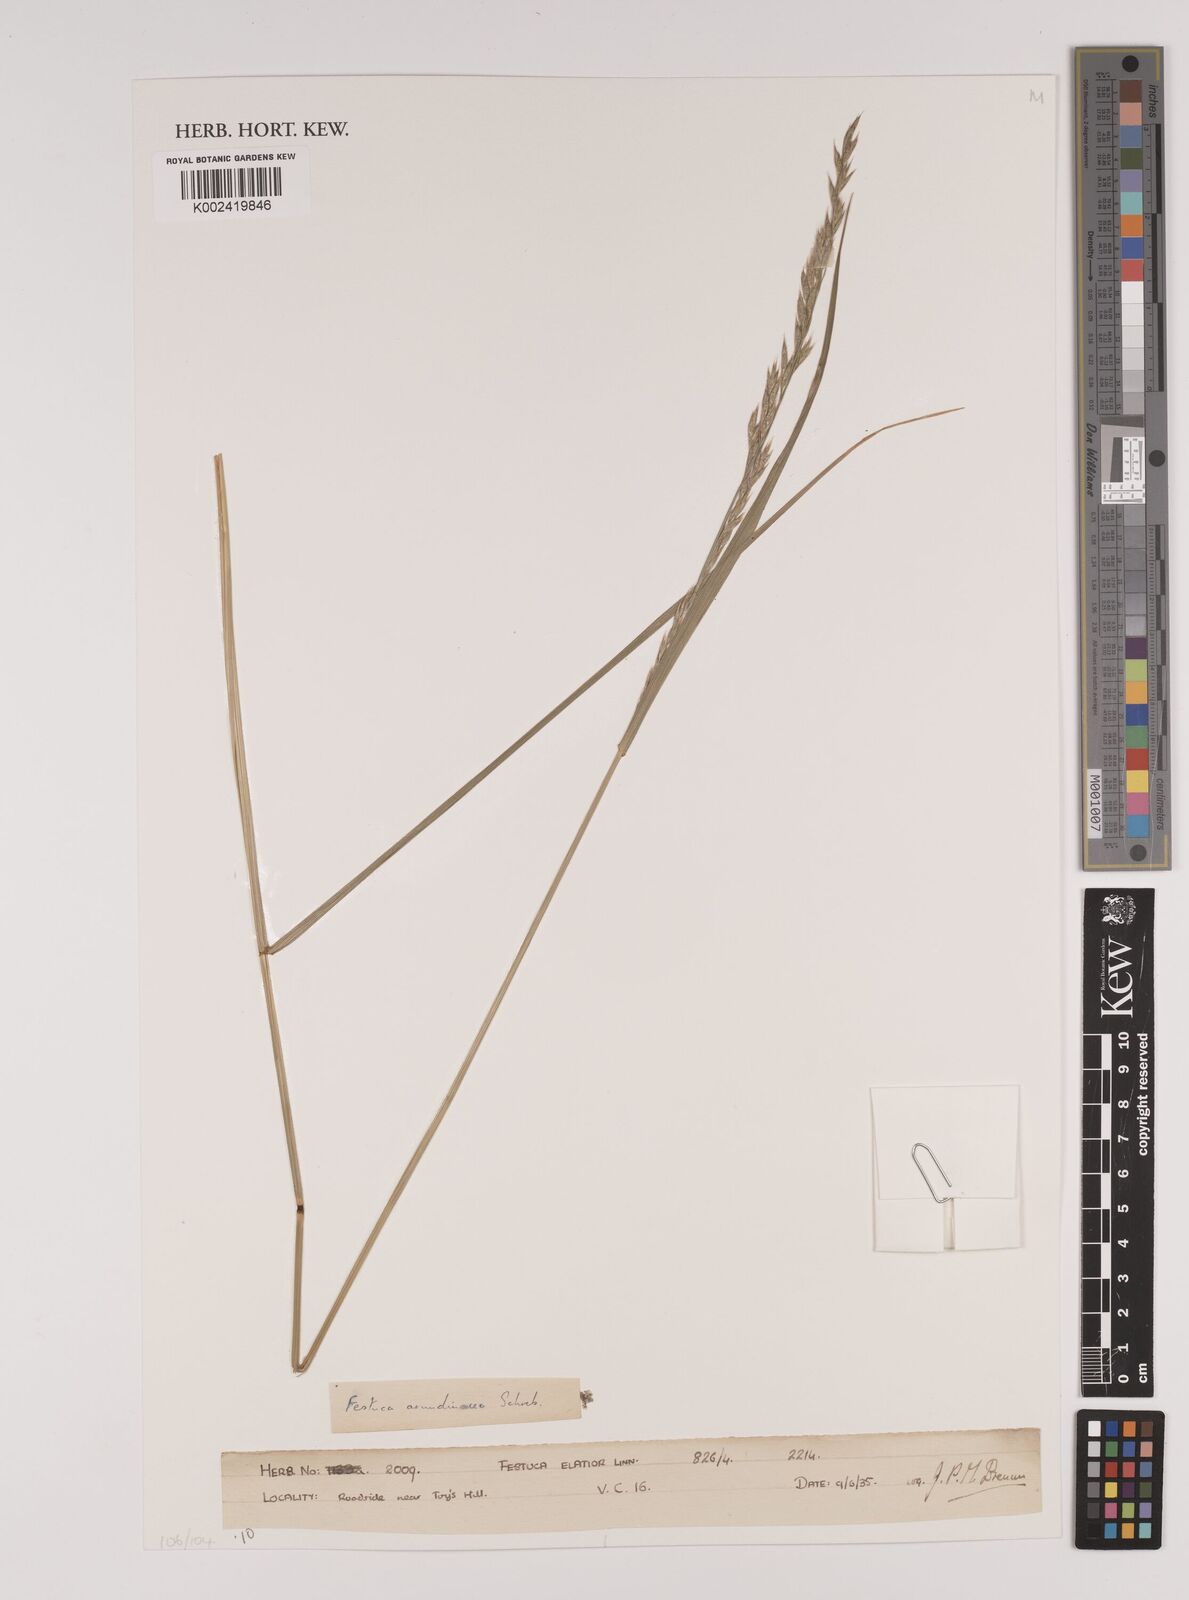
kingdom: Plantae
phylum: Tracheophyta
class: Liliopsida
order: Poales
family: Poaceae
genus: Lolium
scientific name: Lolium arundinaceum
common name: Reed fescue
